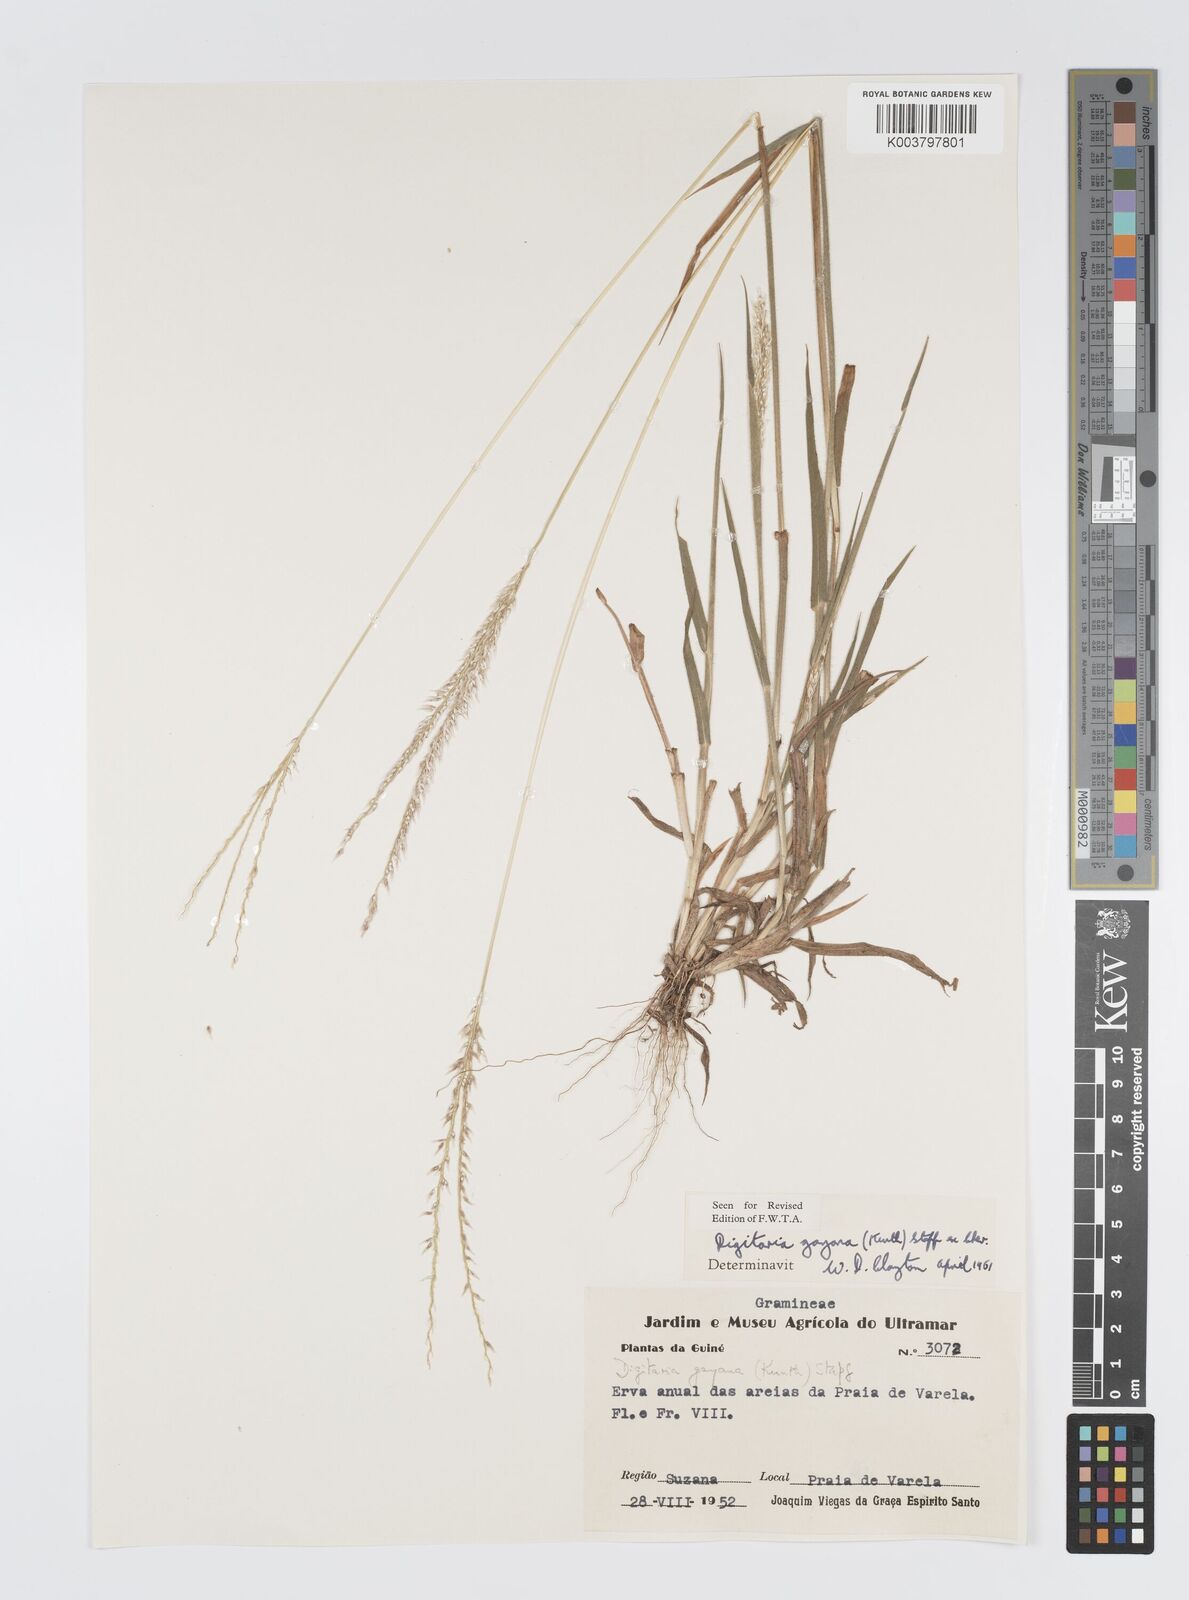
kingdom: Plantae
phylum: Tracheophyta
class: Liliopsida
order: Poales
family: Poaceae
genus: Digitaria
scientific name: Digitaria gayana
